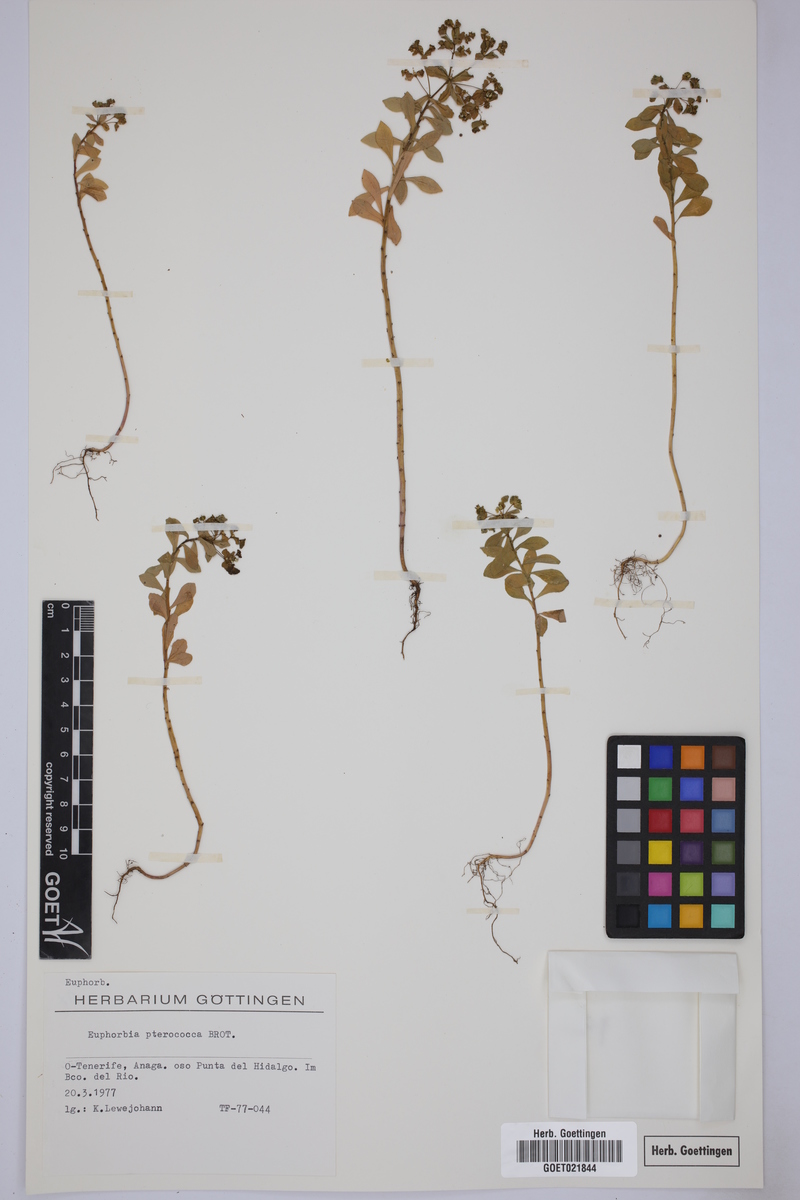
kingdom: Plantae
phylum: Tracheophyta
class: Magnoliopsida
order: Malpighiales
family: Euphorbiaceae
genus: Euphorbia
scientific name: Euphorbia pterococca
